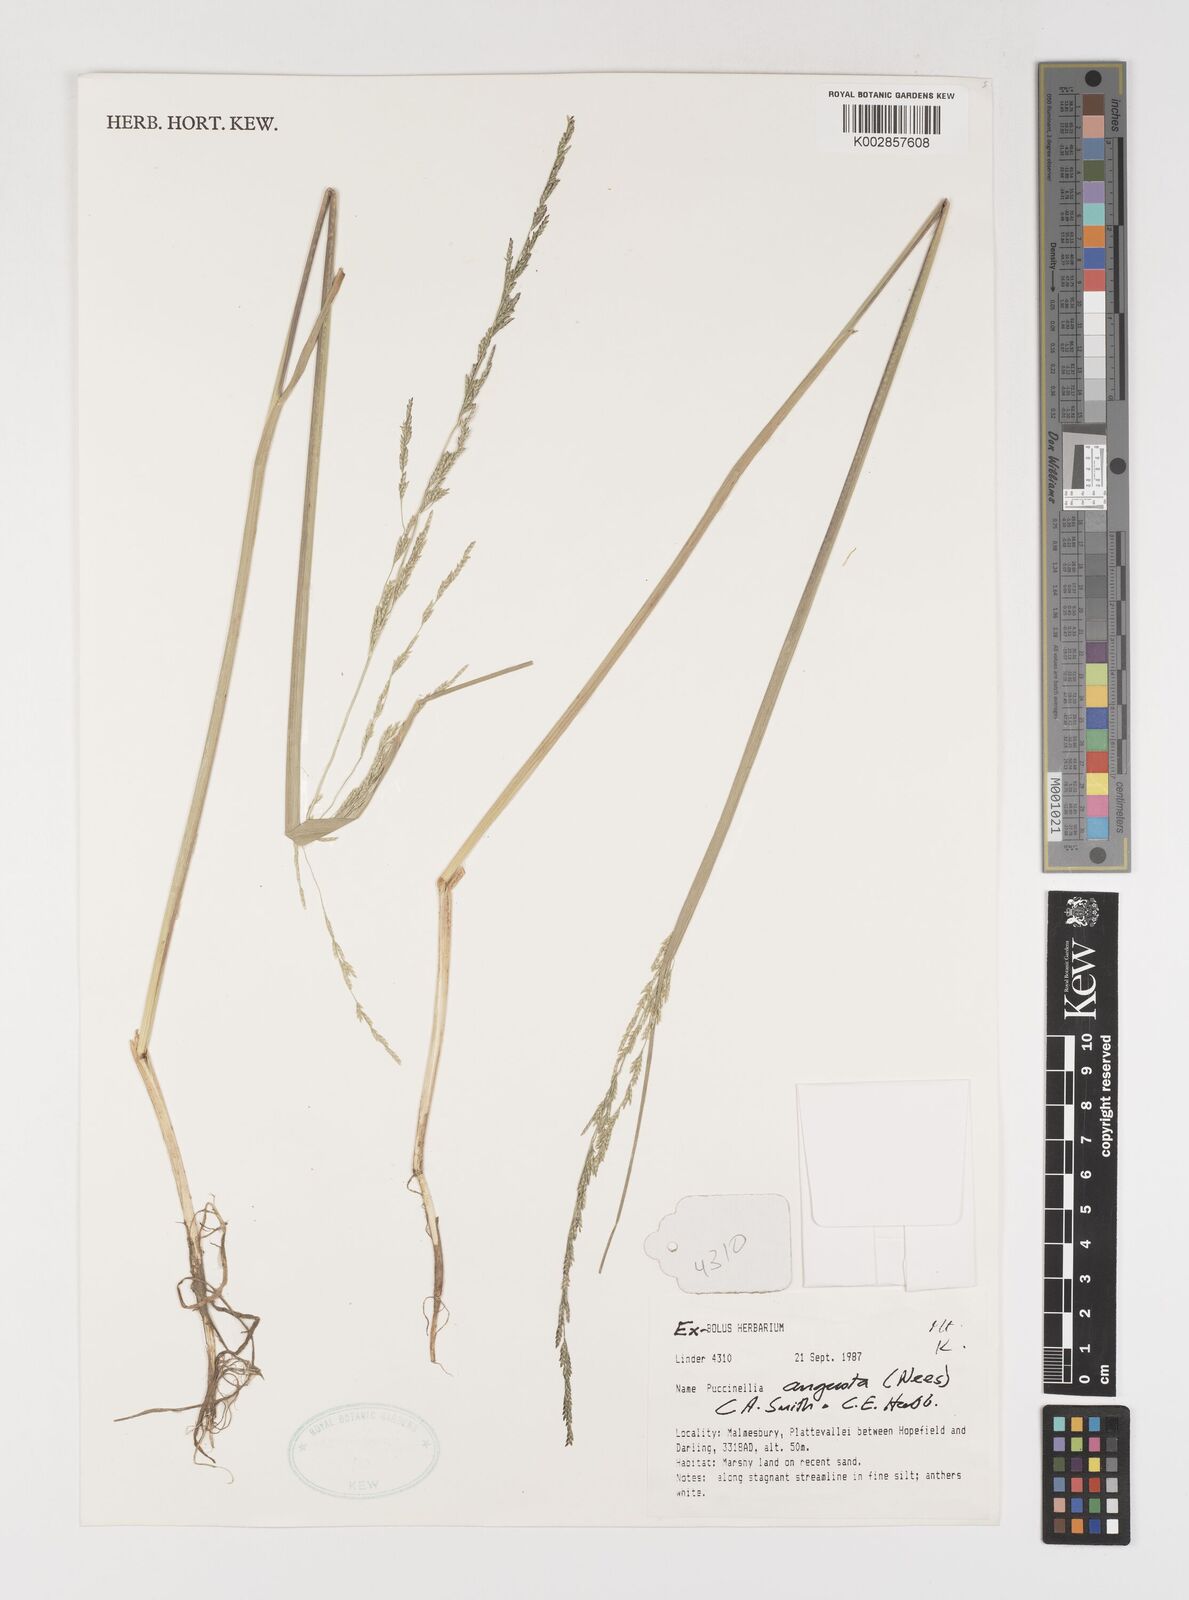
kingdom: Plantae
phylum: Tracheophyta
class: Liliopsida
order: Poales
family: Poaceae
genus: Puccinellia
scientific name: Puccinellia angusta
